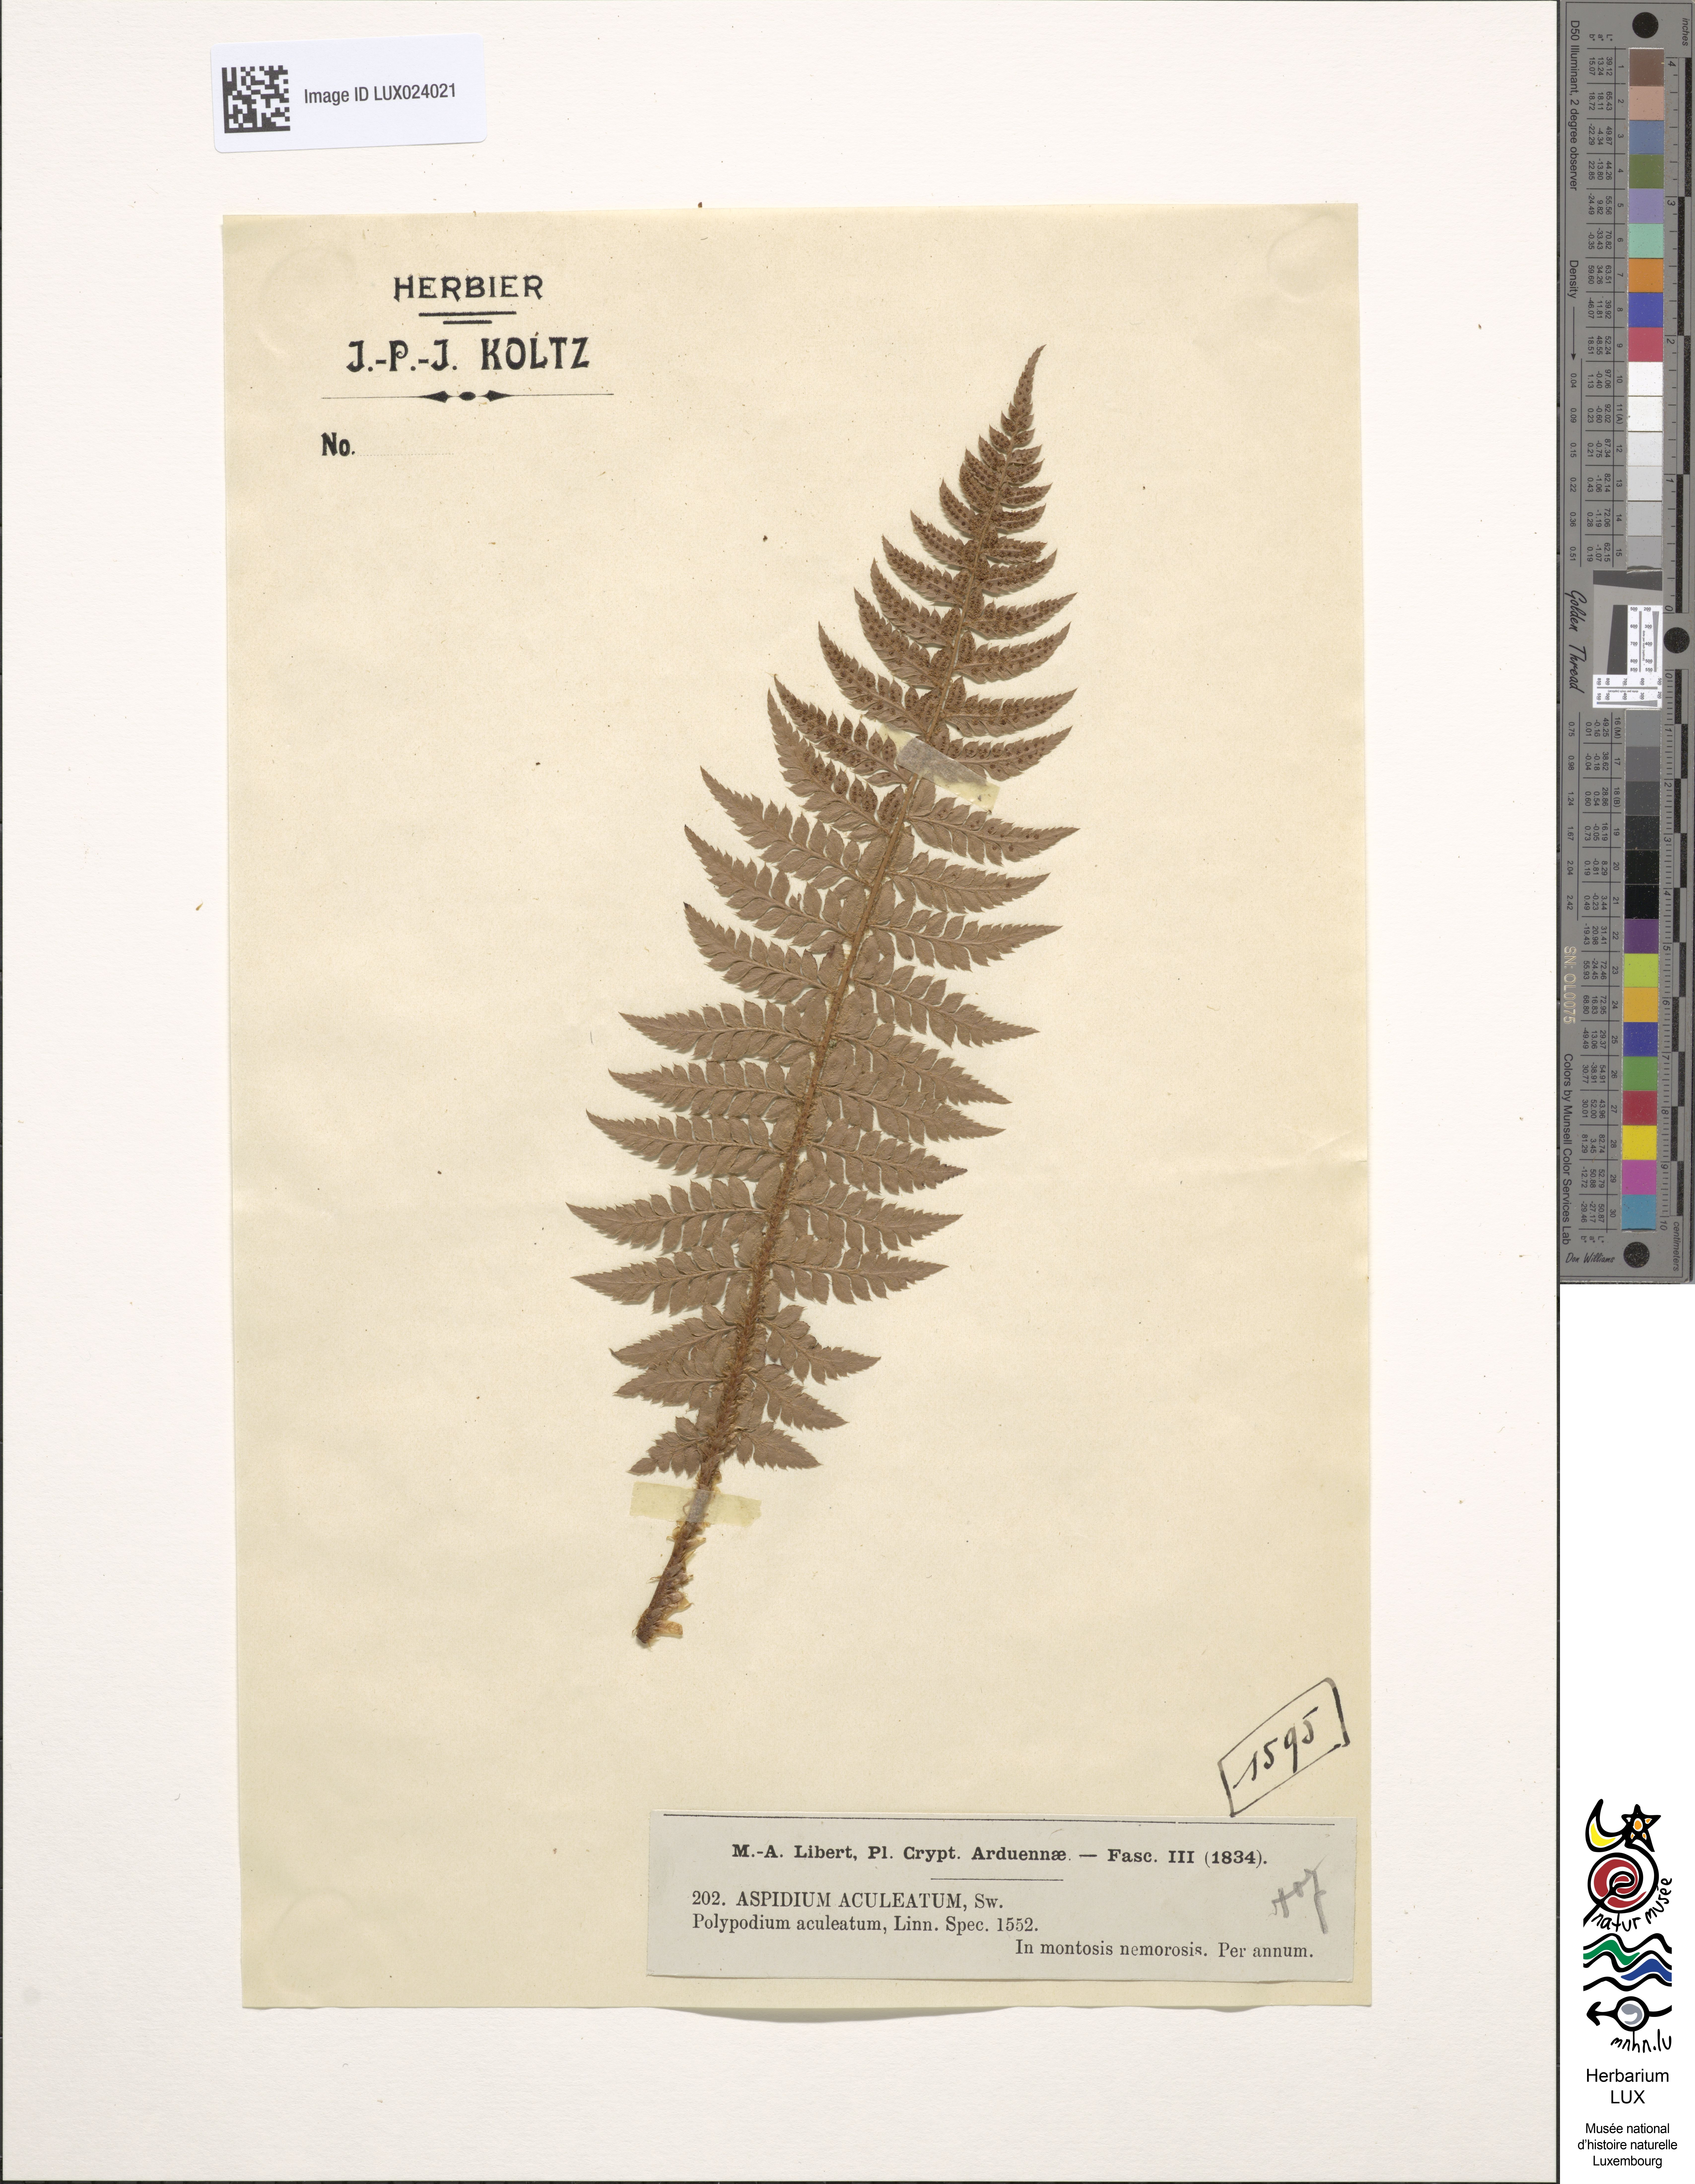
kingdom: Plantae
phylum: Tracheophyta
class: Polypodiopsida
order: Polypodiales
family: Dryopteridaceae
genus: Polystichum
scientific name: Polystichum aculeatum
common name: Hard shield-fern
